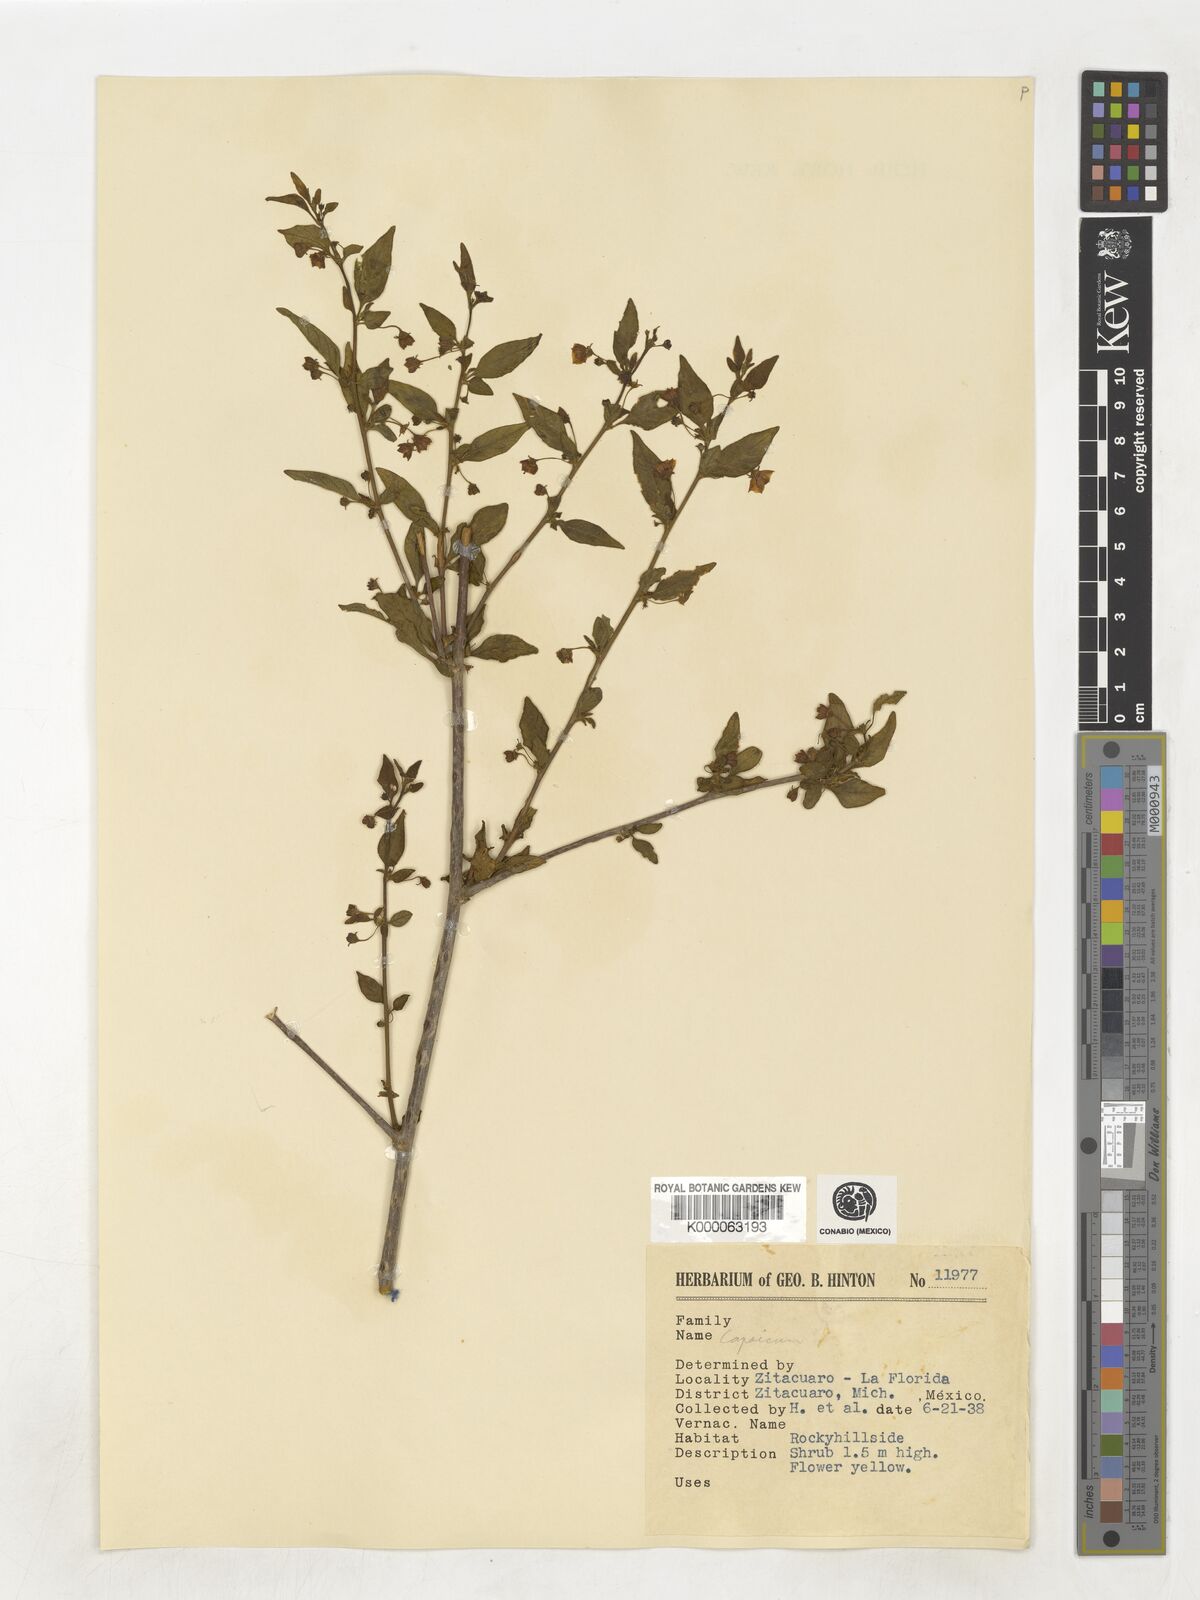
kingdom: Plantae
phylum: Tracheophyta
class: Magnoliopsida
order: Solanales
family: Solanaceae
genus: Capsicum
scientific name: Capsicum
